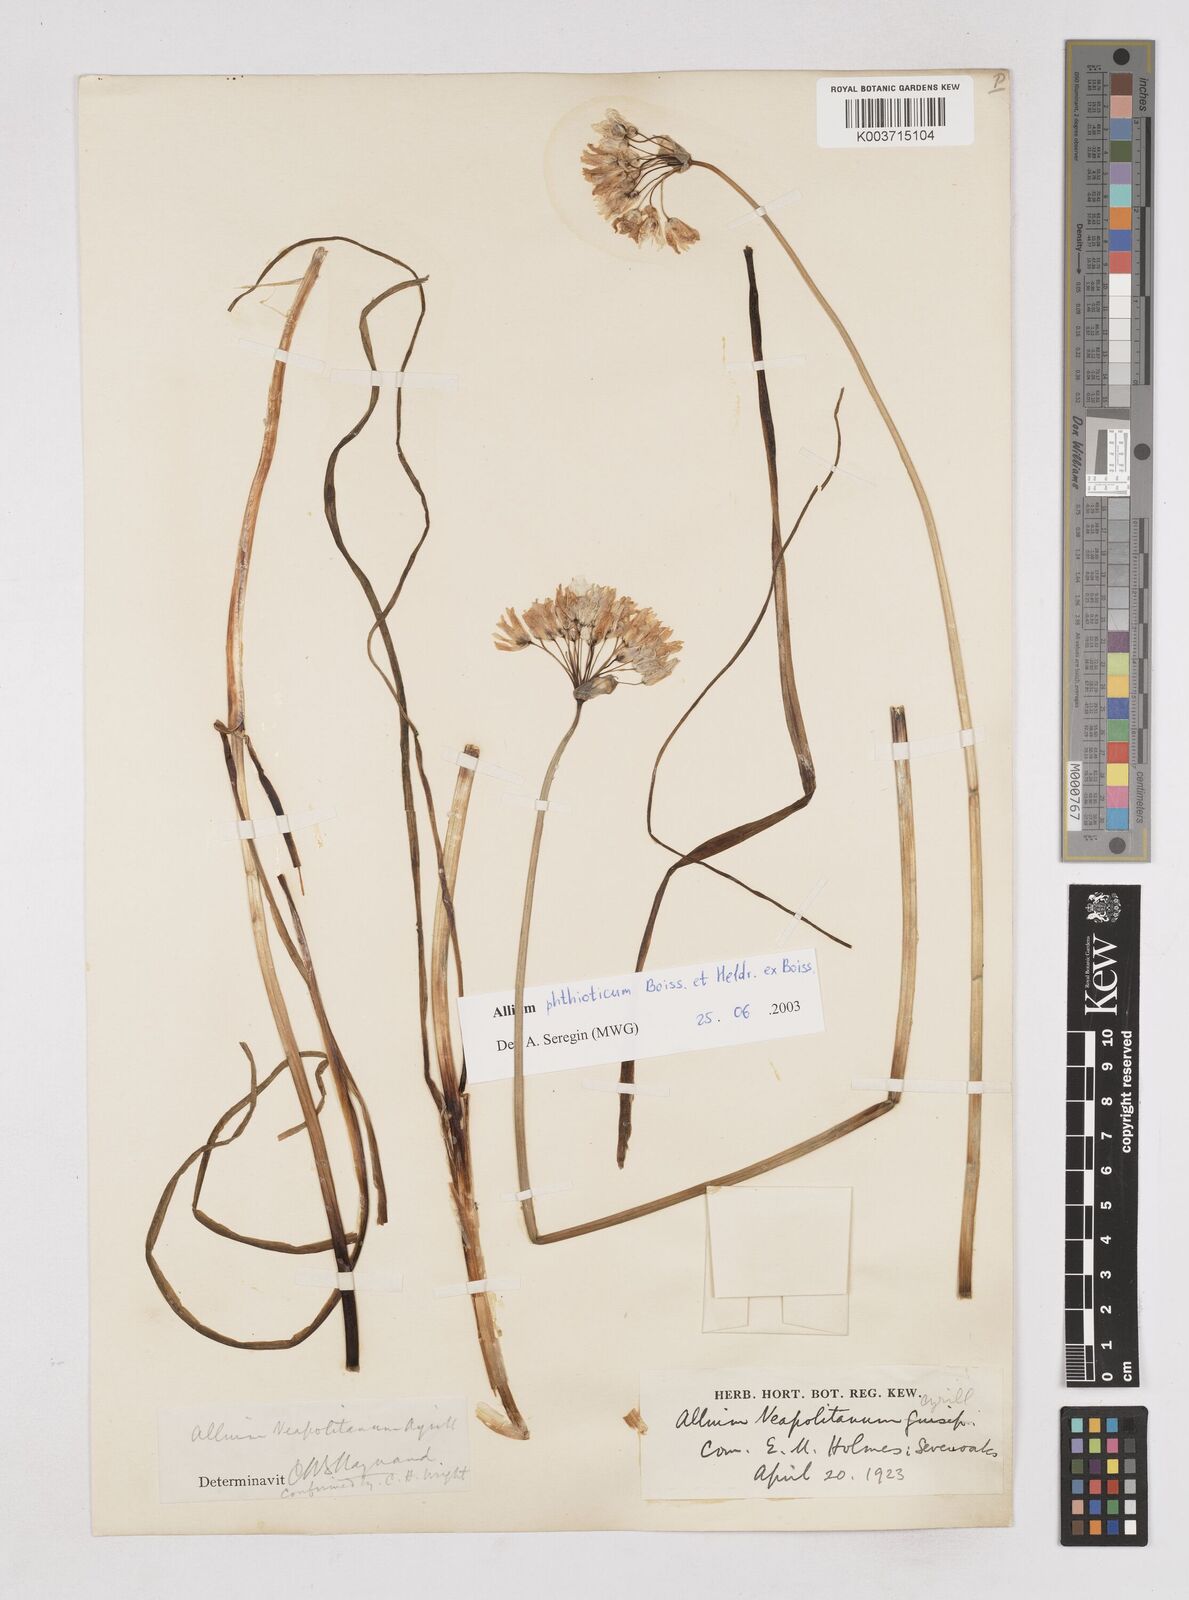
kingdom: Plantae
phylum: Tracheophyta
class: Liliopsida
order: Asparagales
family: Amaryllidaceae
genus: Allium
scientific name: Allium phthioticum
